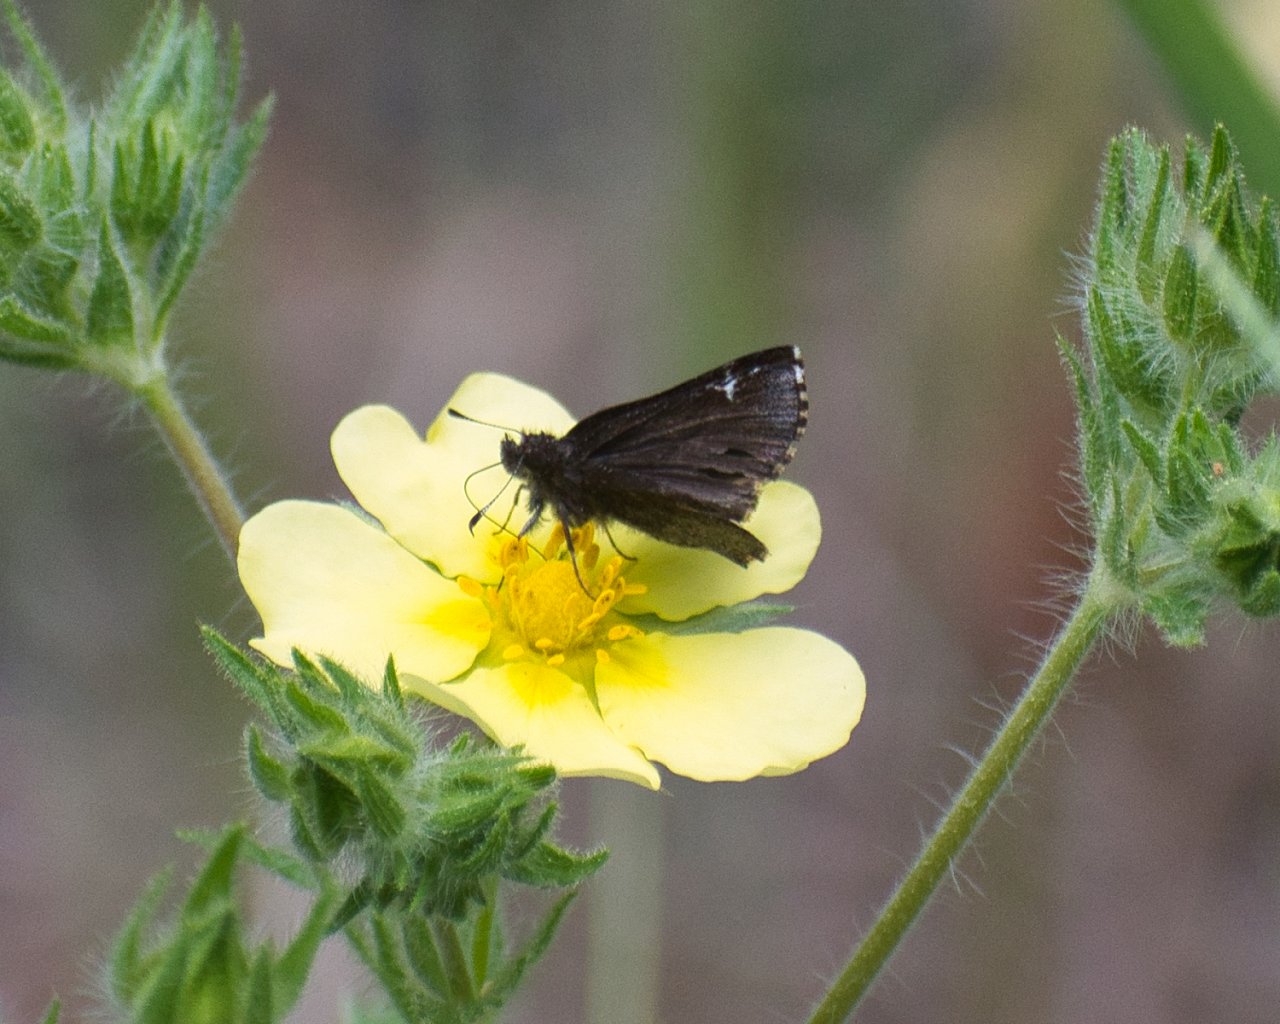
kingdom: Animalia
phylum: Arthropoda
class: Insecta
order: Lepidoptera
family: Hesperiidae
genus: Mastor
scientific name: Mastor vialis
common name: Common Roadside-Skipper
